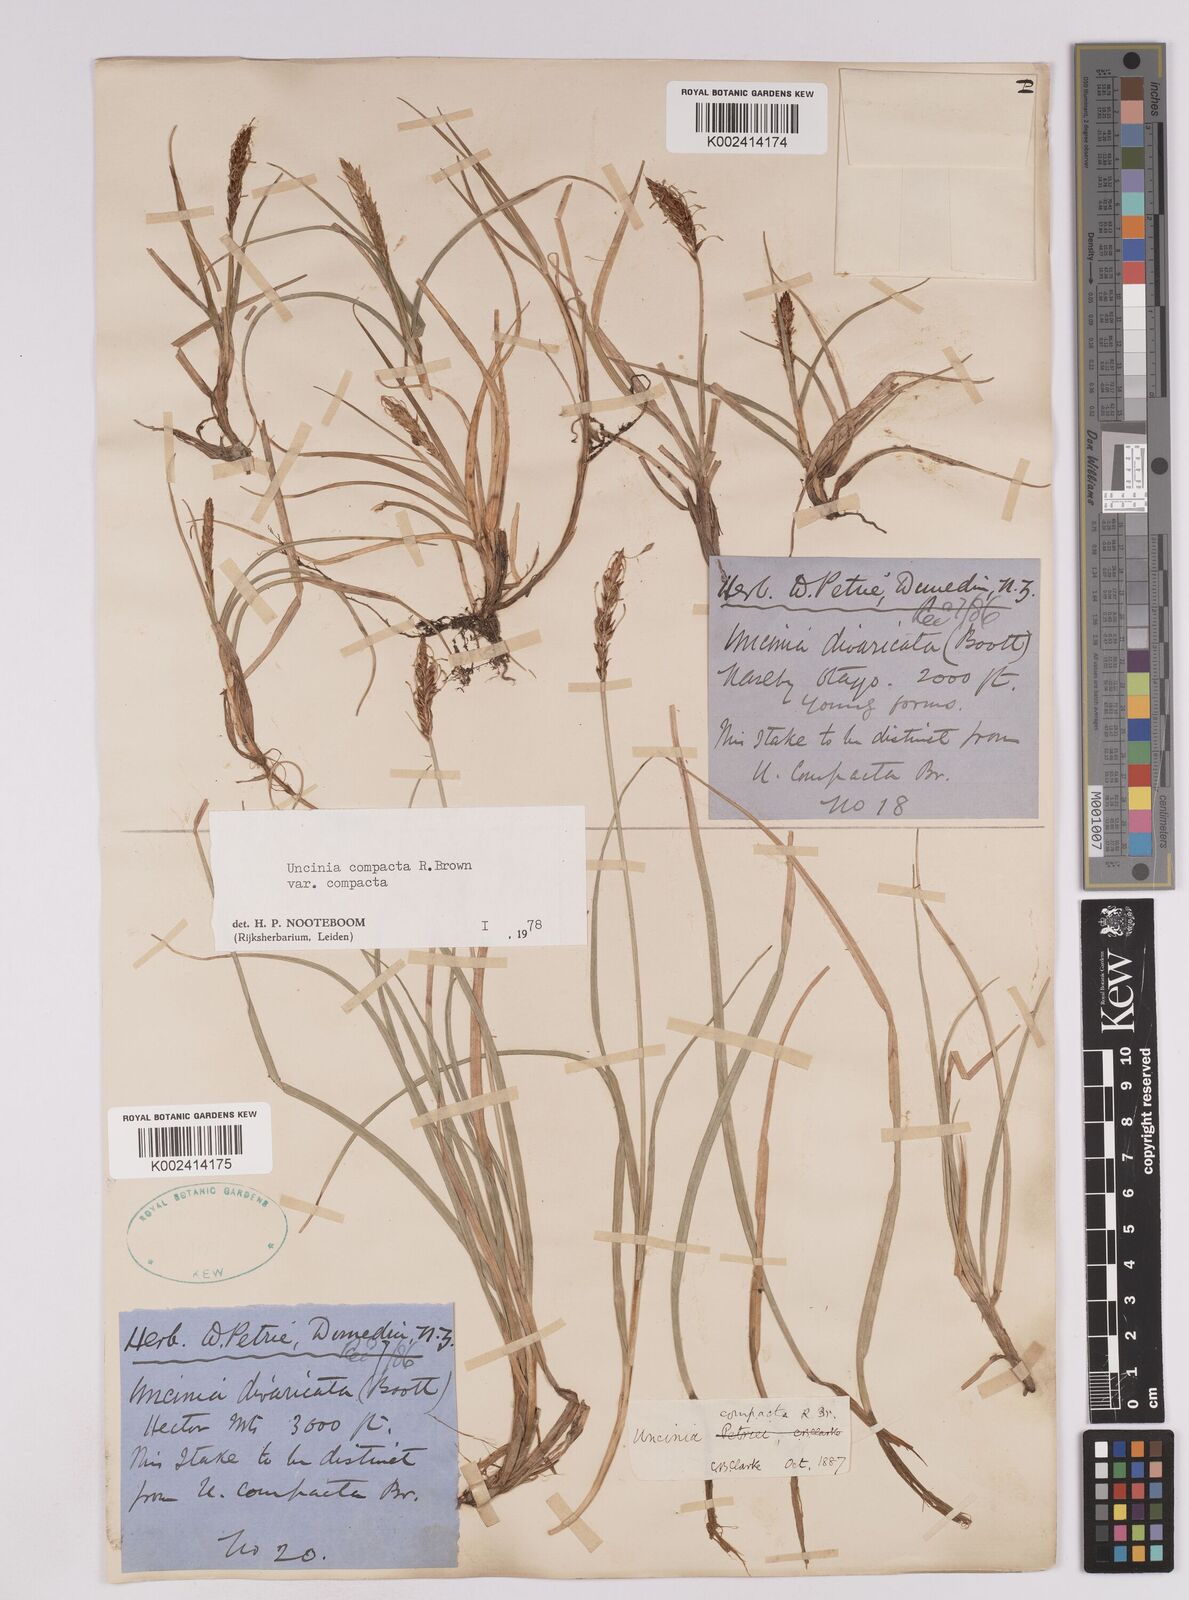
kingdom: Plantae
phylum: Tracheophyta
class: Liliopsida
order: Poales
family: Cyperaceae
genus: Carex
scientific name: Carex austrocompacta
